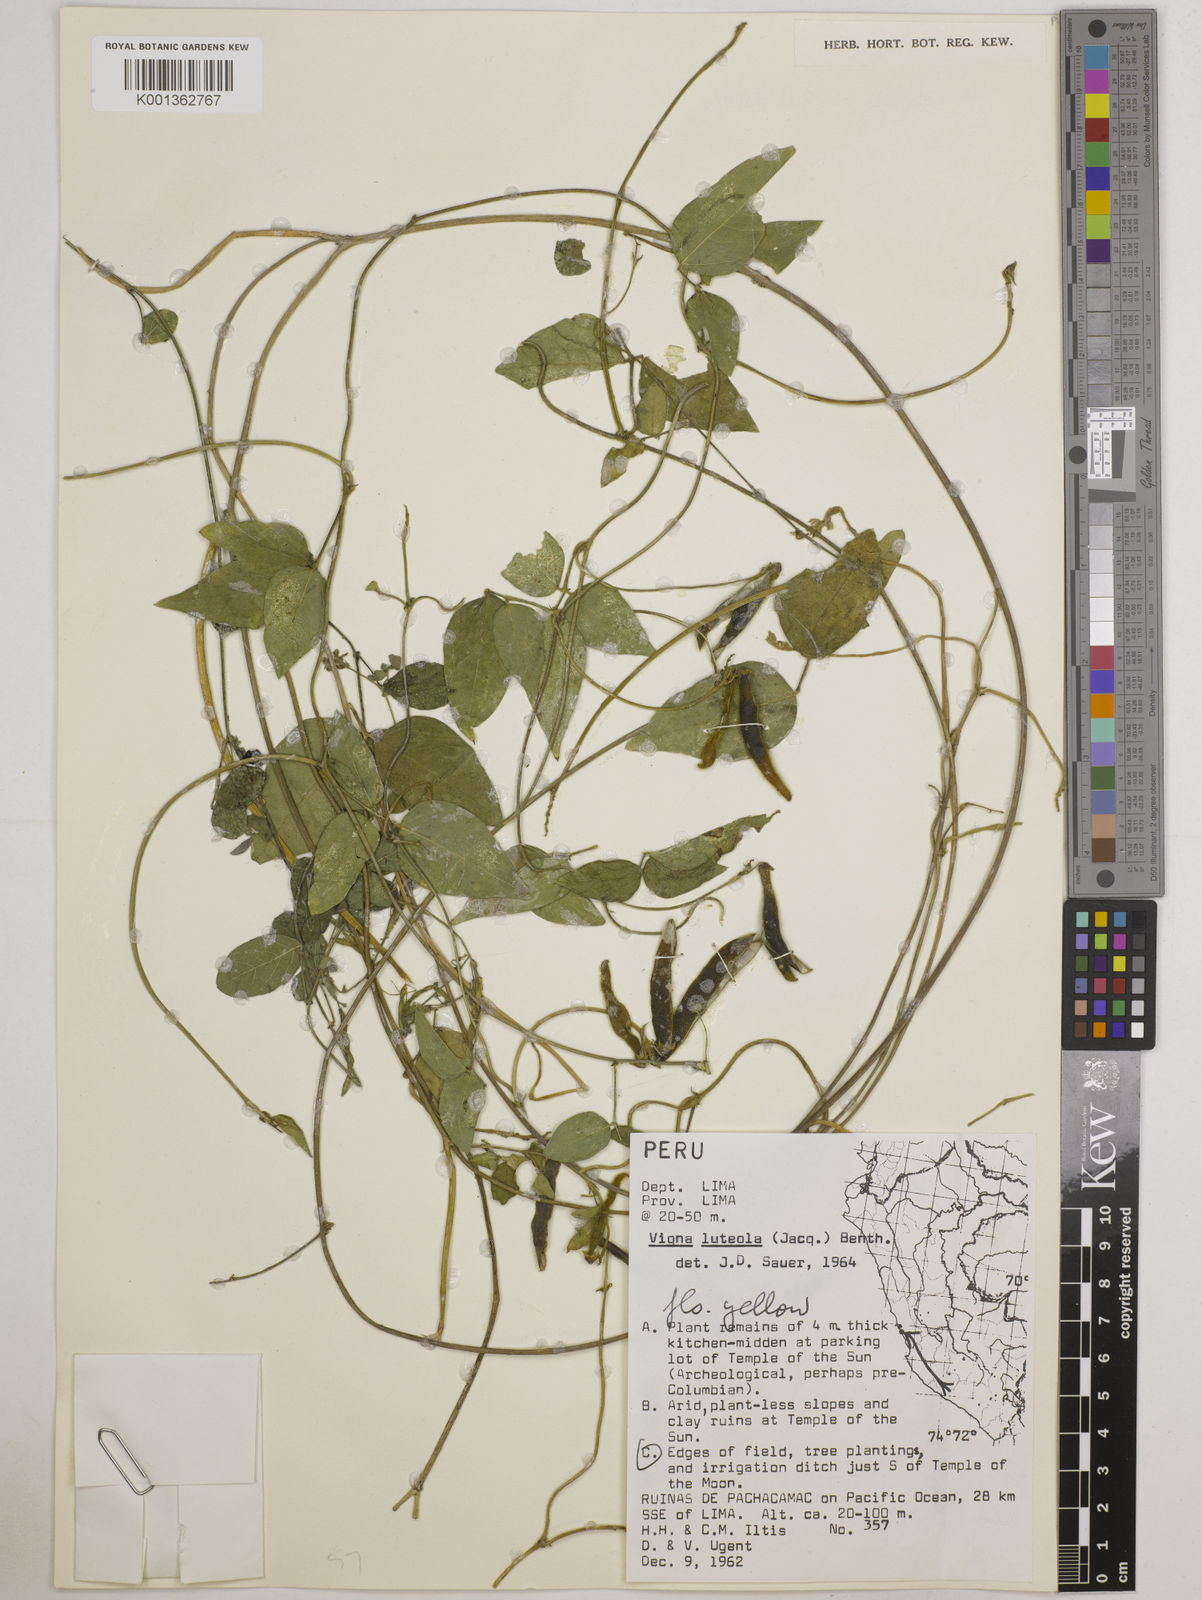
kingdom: Plantae
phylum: Tracheophyta
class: Magnoliopsida
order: Fabales
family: Fabaceae
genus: Vigna
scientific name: Vigna luteola
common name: Hairypod cowpea
